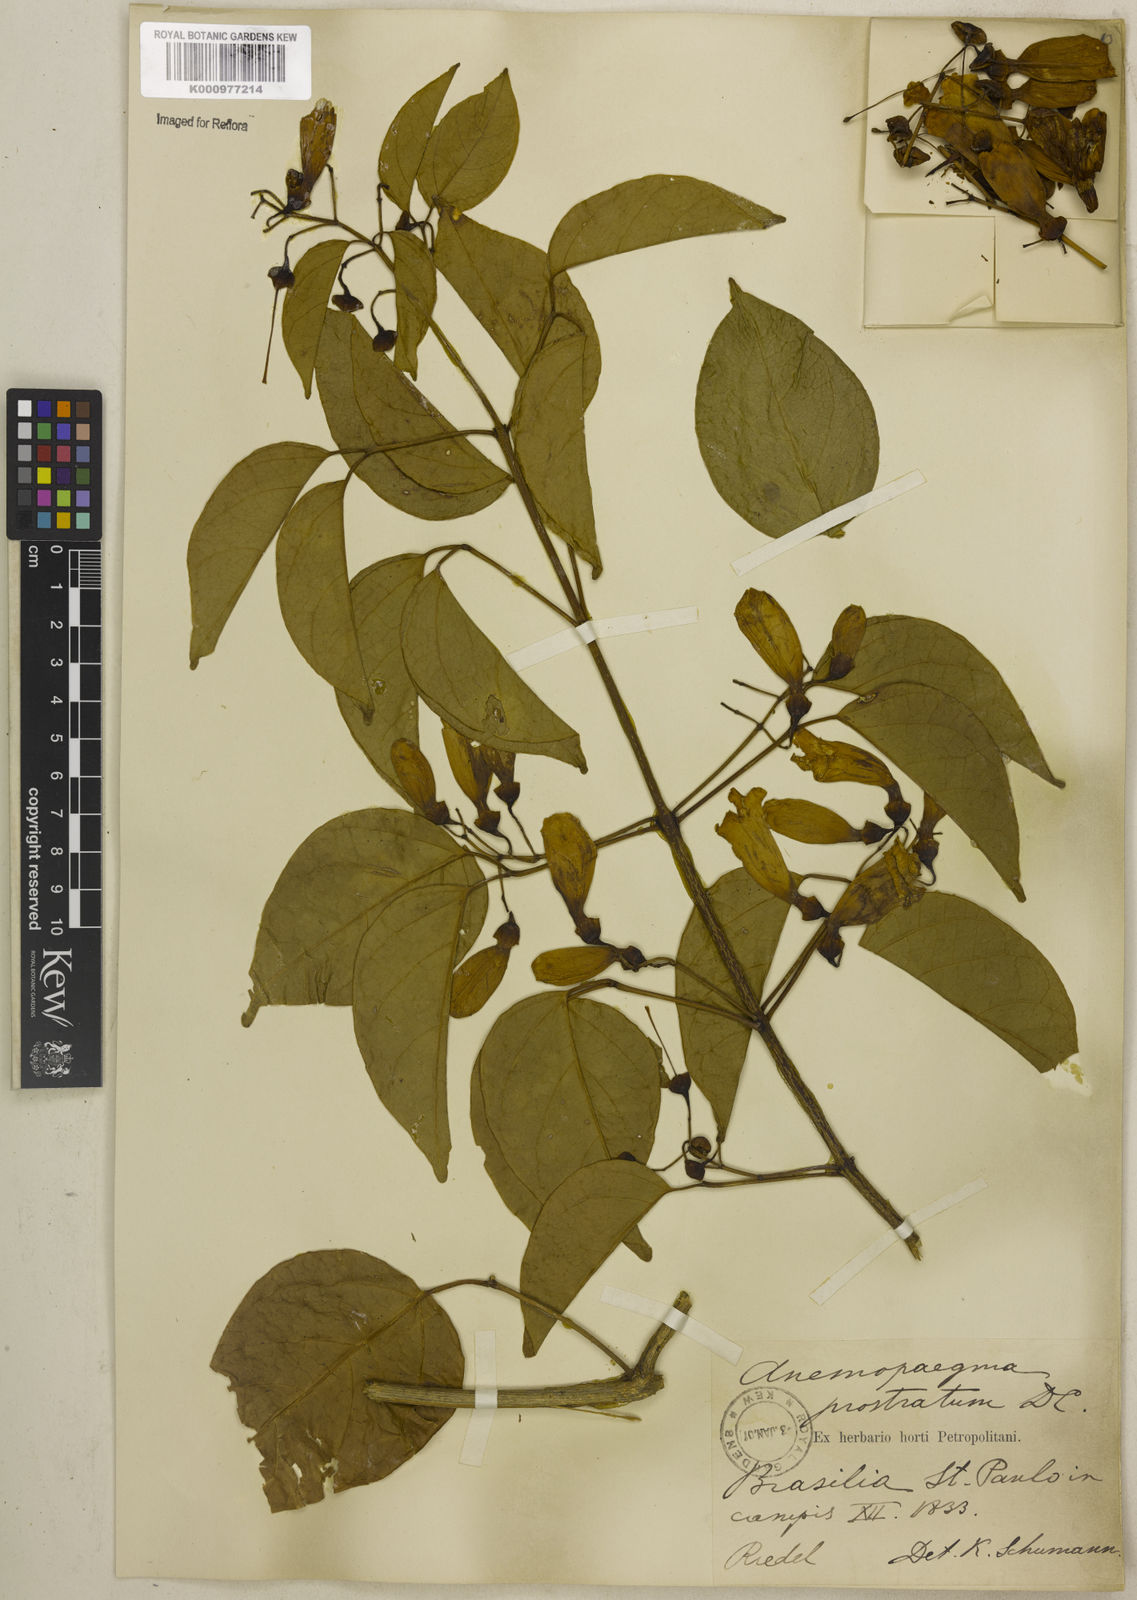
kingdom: Plantae
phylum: Tracheophyta
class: Magnoliopsida
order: Lamiales
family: Bignoniaceae
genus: Anemopaegma
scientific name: Anemopaegma prostratum
